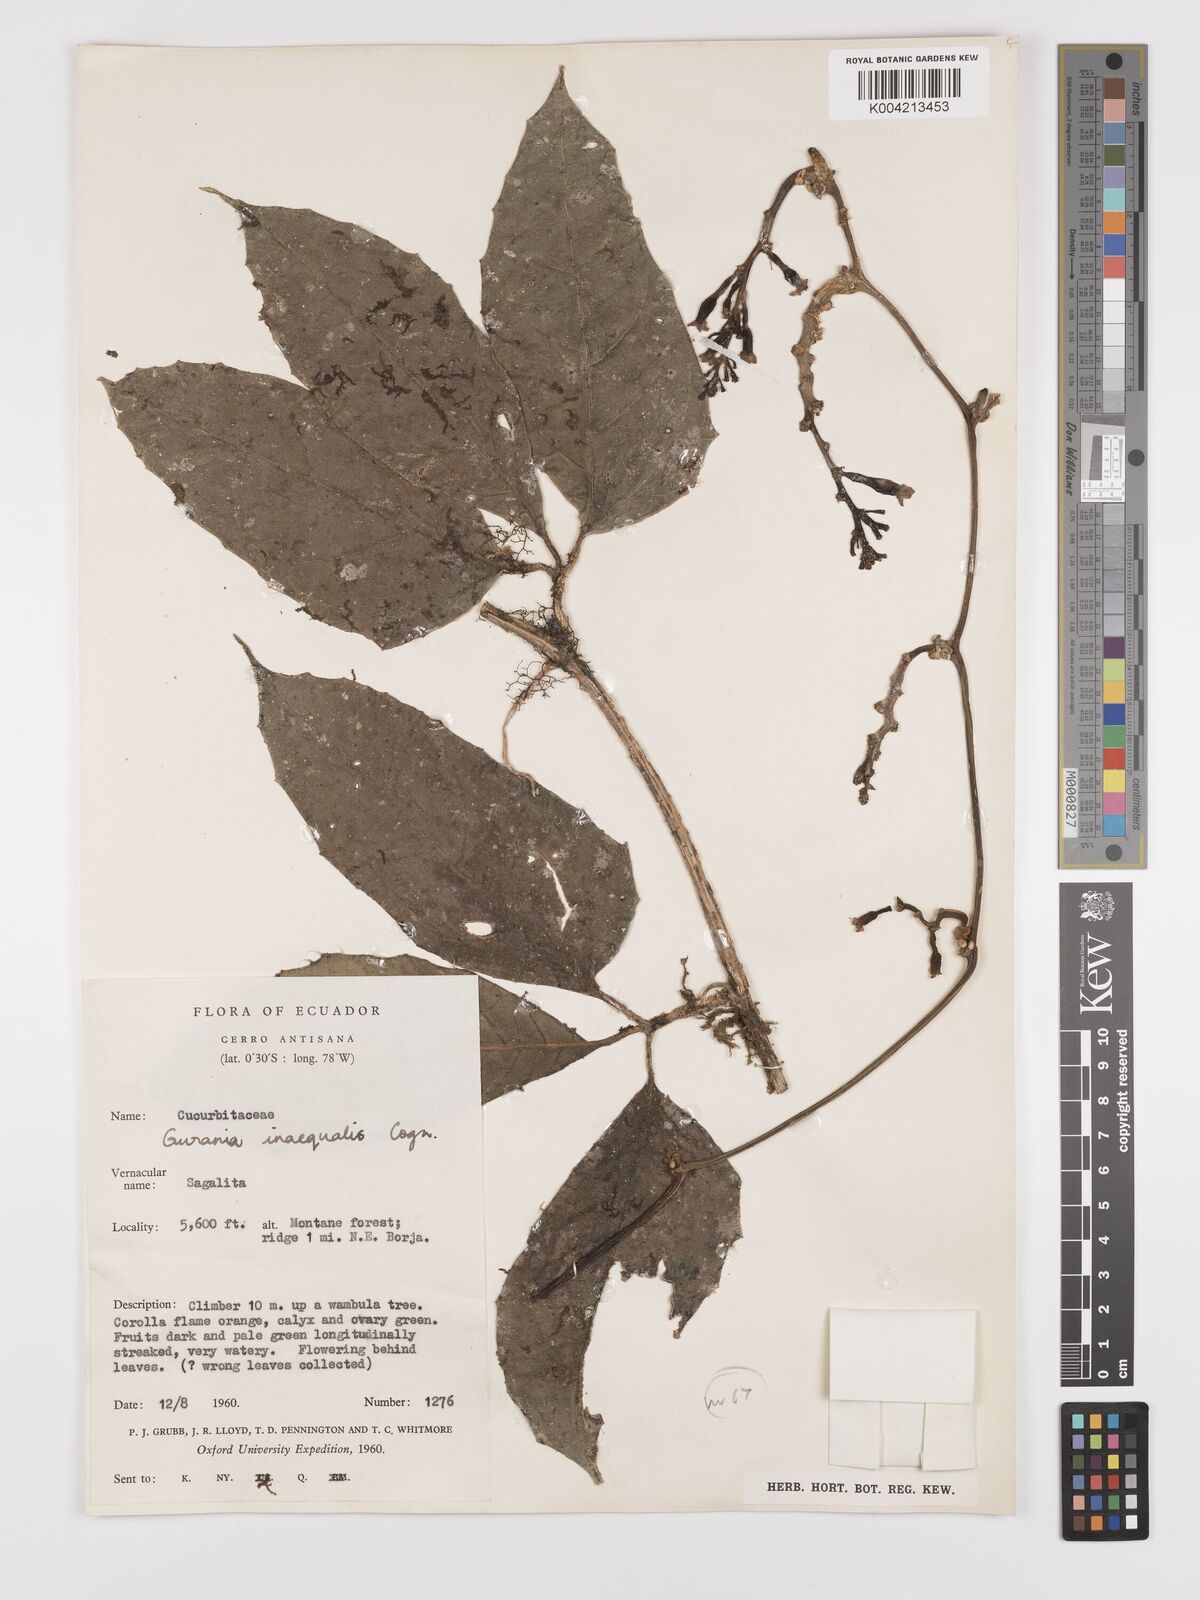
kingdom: Plantae
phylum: Tracheophyta
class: Magnoliopsida
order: Cucurbitales
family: Cucurbitaceae
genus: Psiguria
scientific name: Psiguria triphylla
